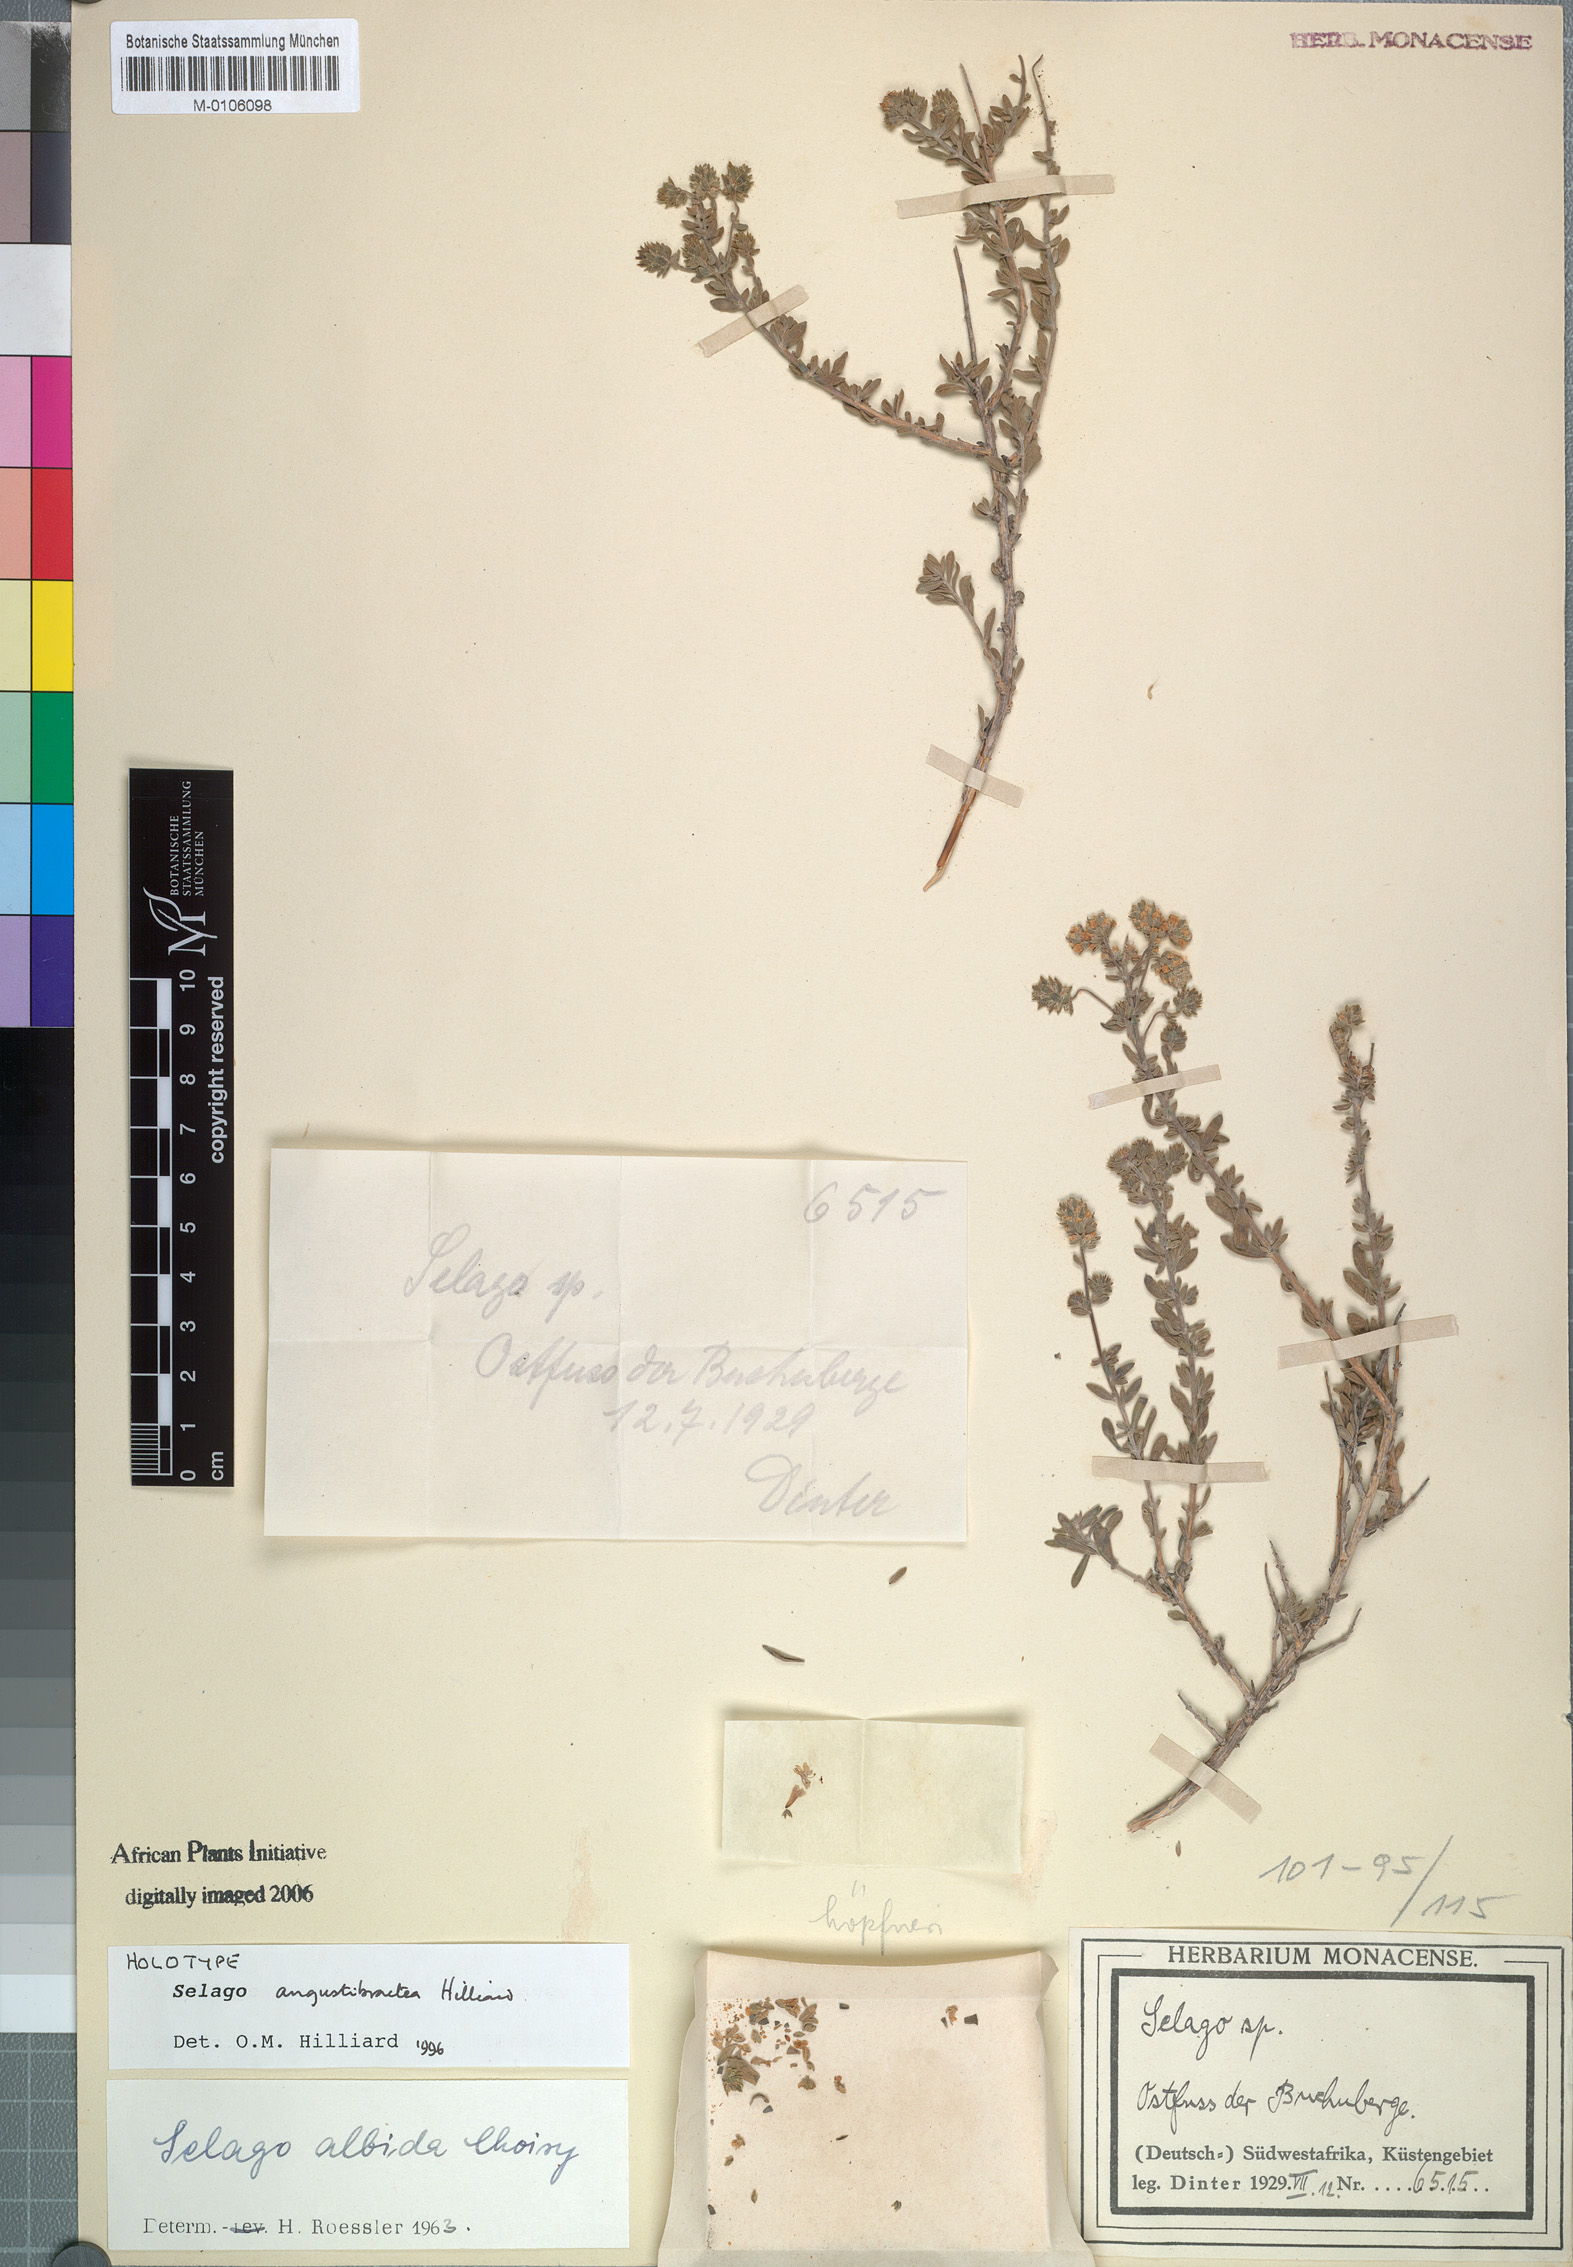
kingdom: Plantae
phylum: Tracheophyta
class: Magnoliopsida
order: Lamiales
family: Scrophulariaceae
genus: Selago
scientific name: Selago angustibractea
